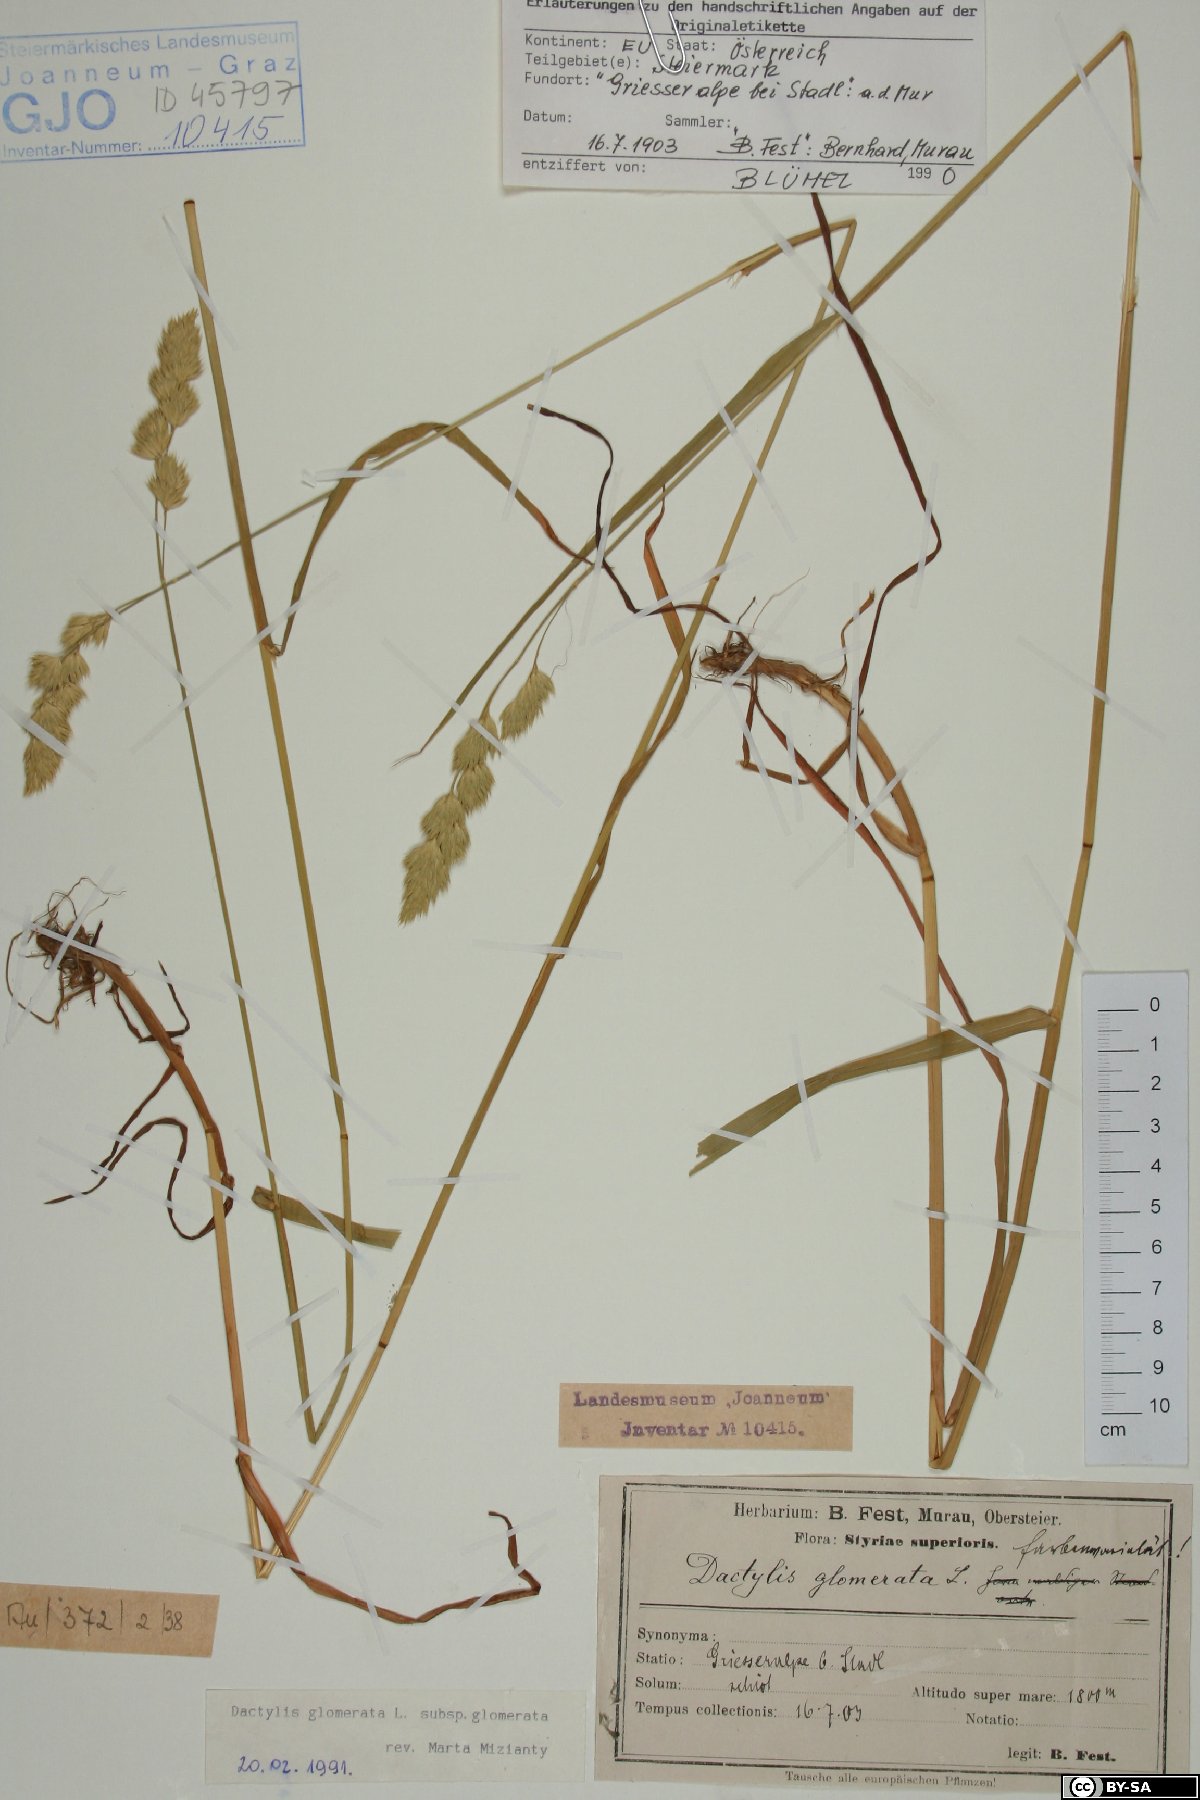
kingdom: Plantae
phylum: Tracheophyta
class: Liliopsida
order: Poales
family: Poaceae
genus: Dactylis
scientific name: Dactylis glomerata
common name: Orchardgrass
